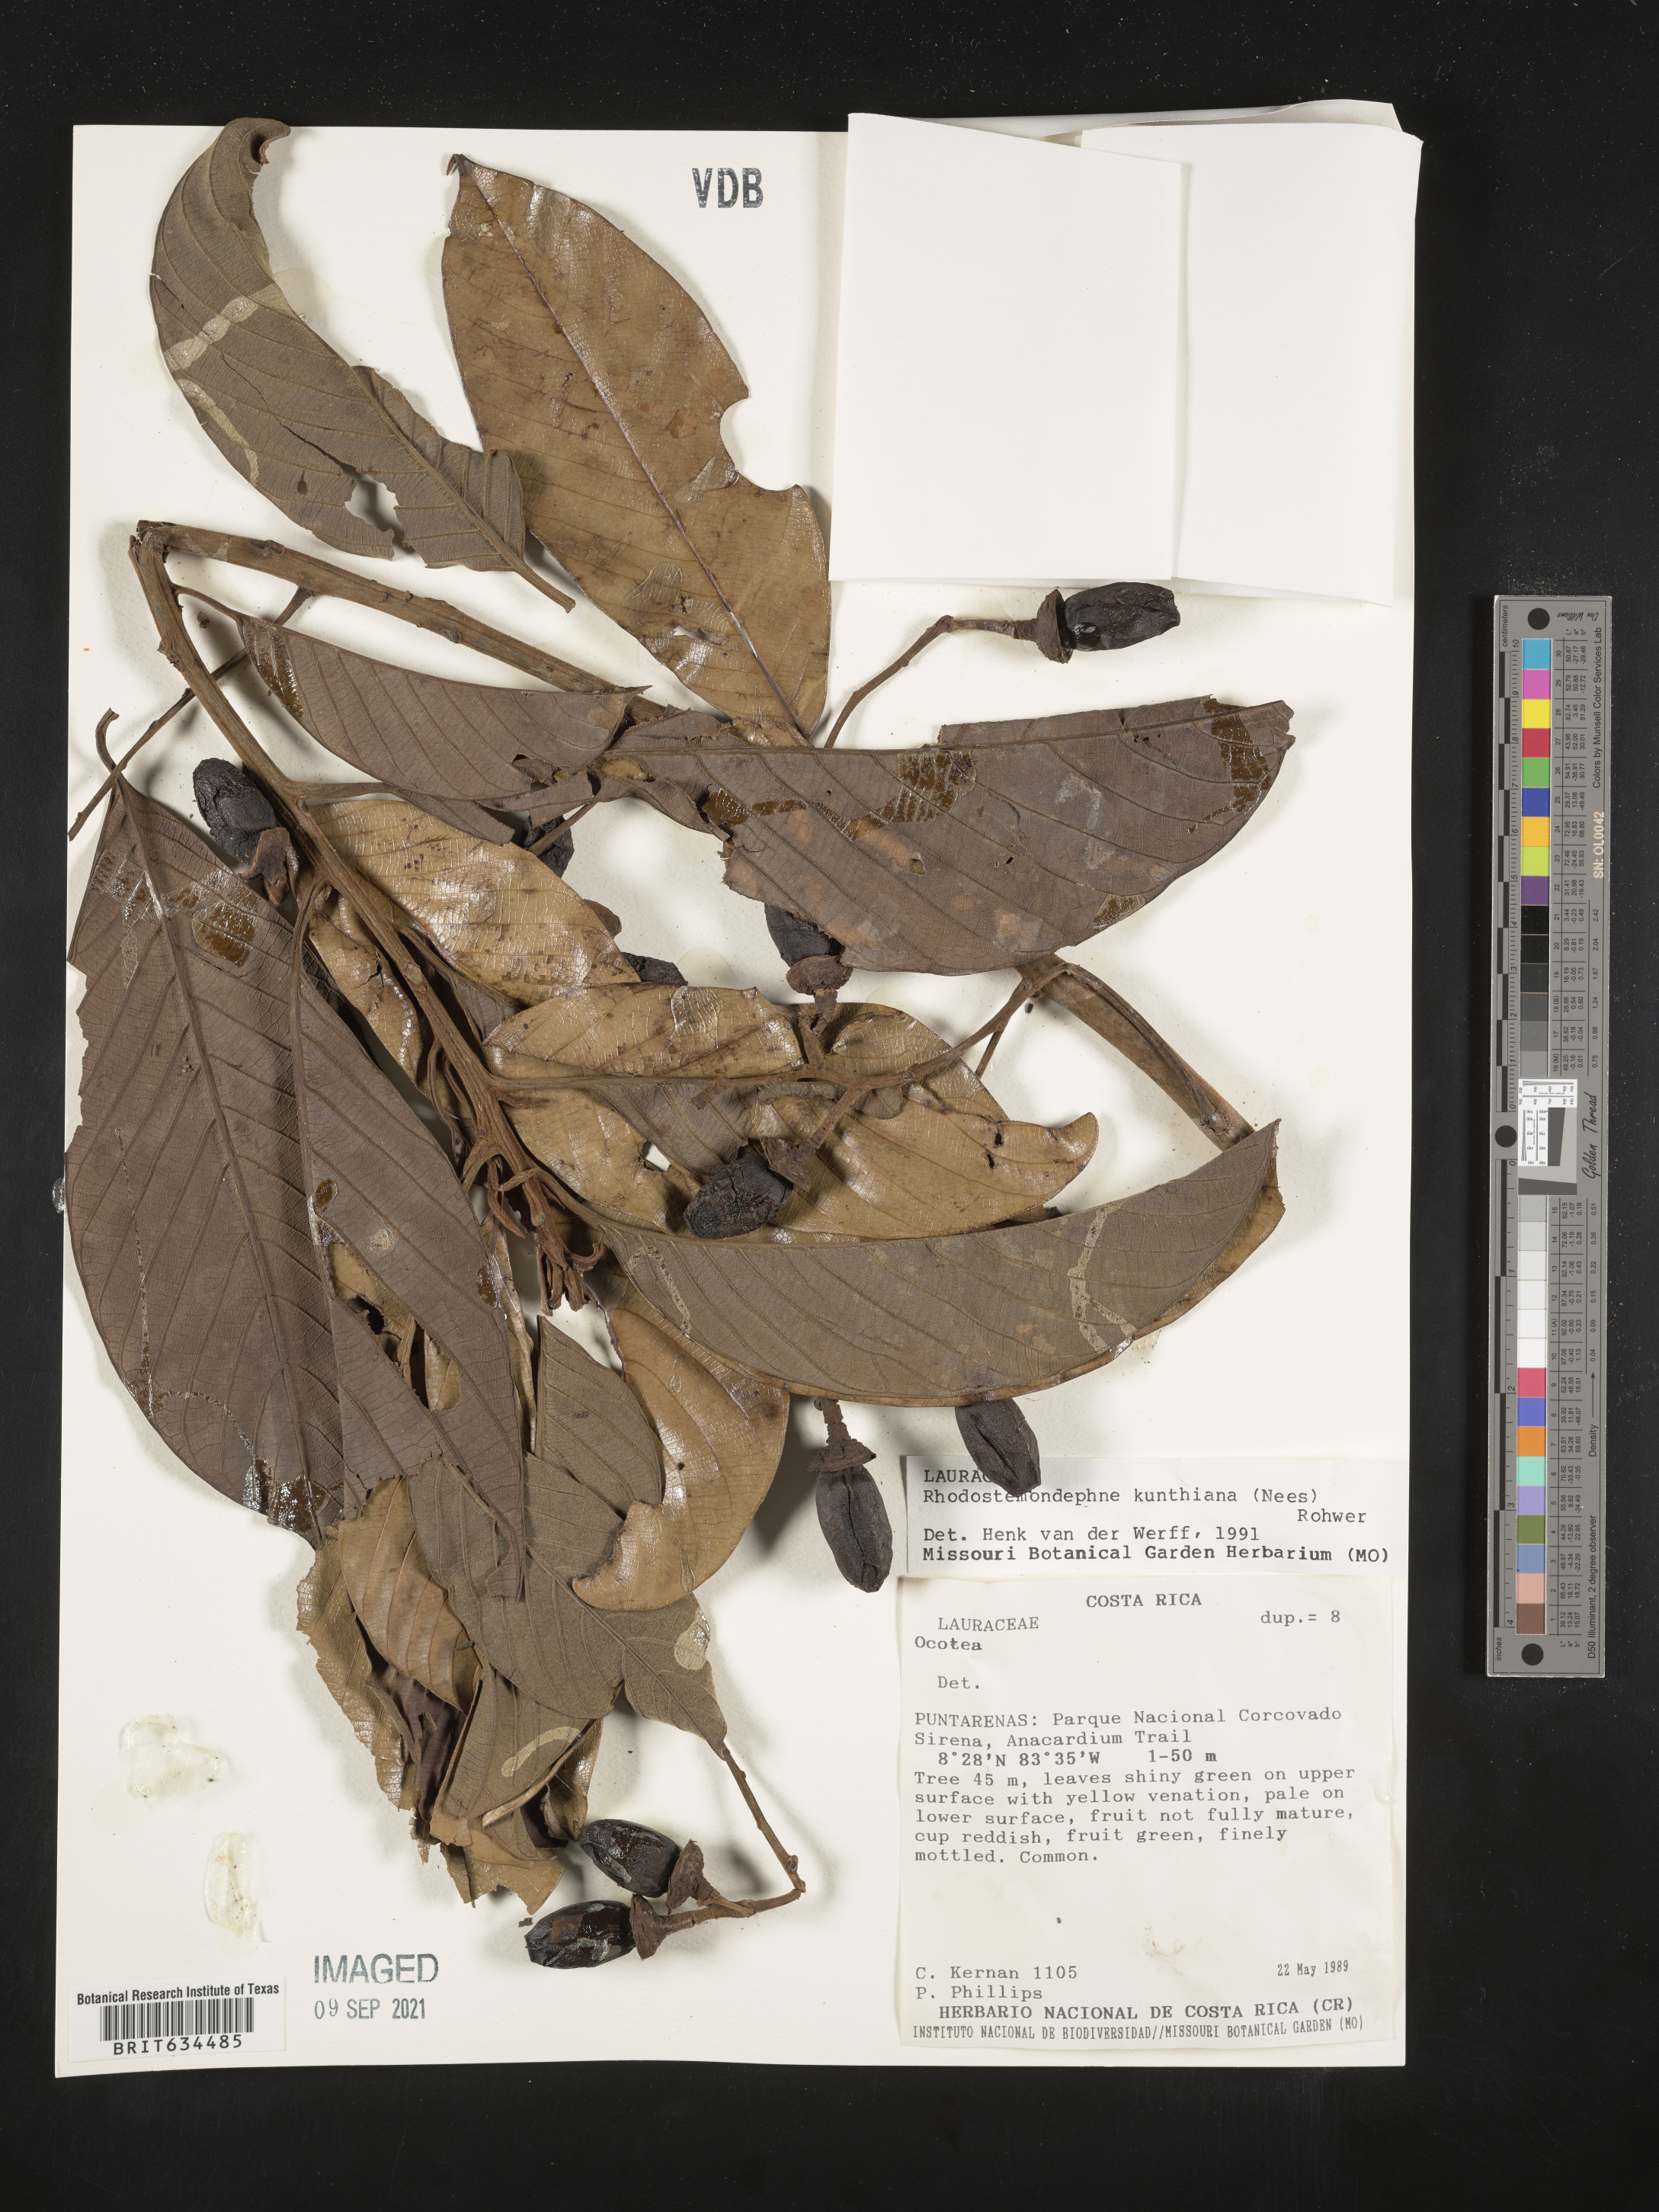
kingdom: Plantae
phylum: Tracheophyta
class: Magnoliopsida
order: Laurales
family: Lauraceae
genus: Rhodostemonodaphne
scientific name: Rhodostemonodaphne
